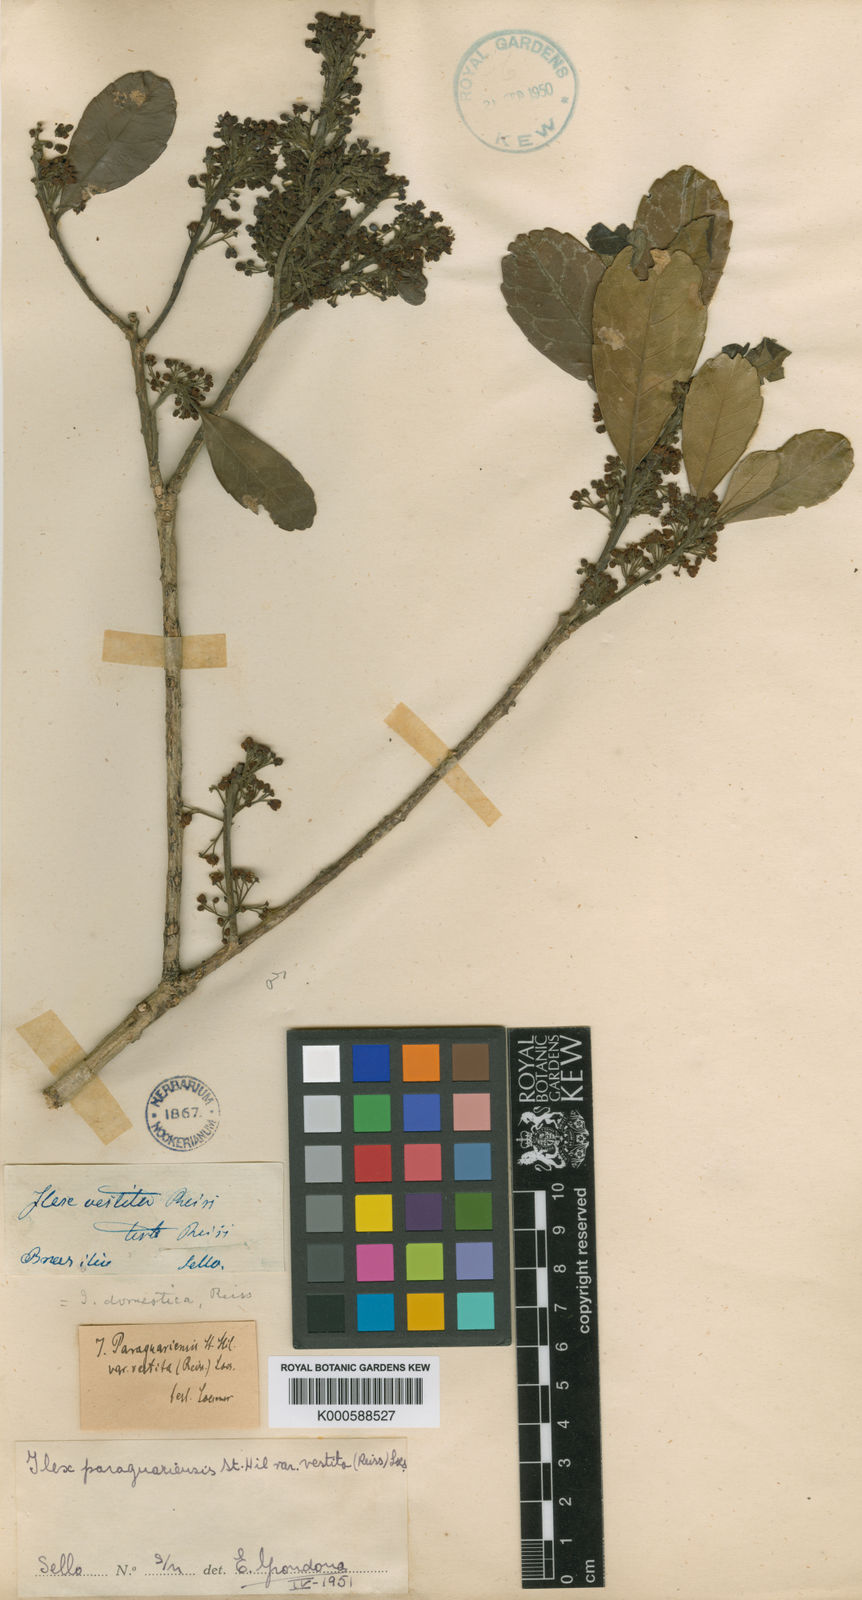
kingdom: Plantae
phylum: Tracheophyta
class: Magnoliopsida
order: Aquifoliales
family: Aquifoliaceae
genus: Ilex
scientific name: Ilex paraguariensis
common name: Paraguay tea
